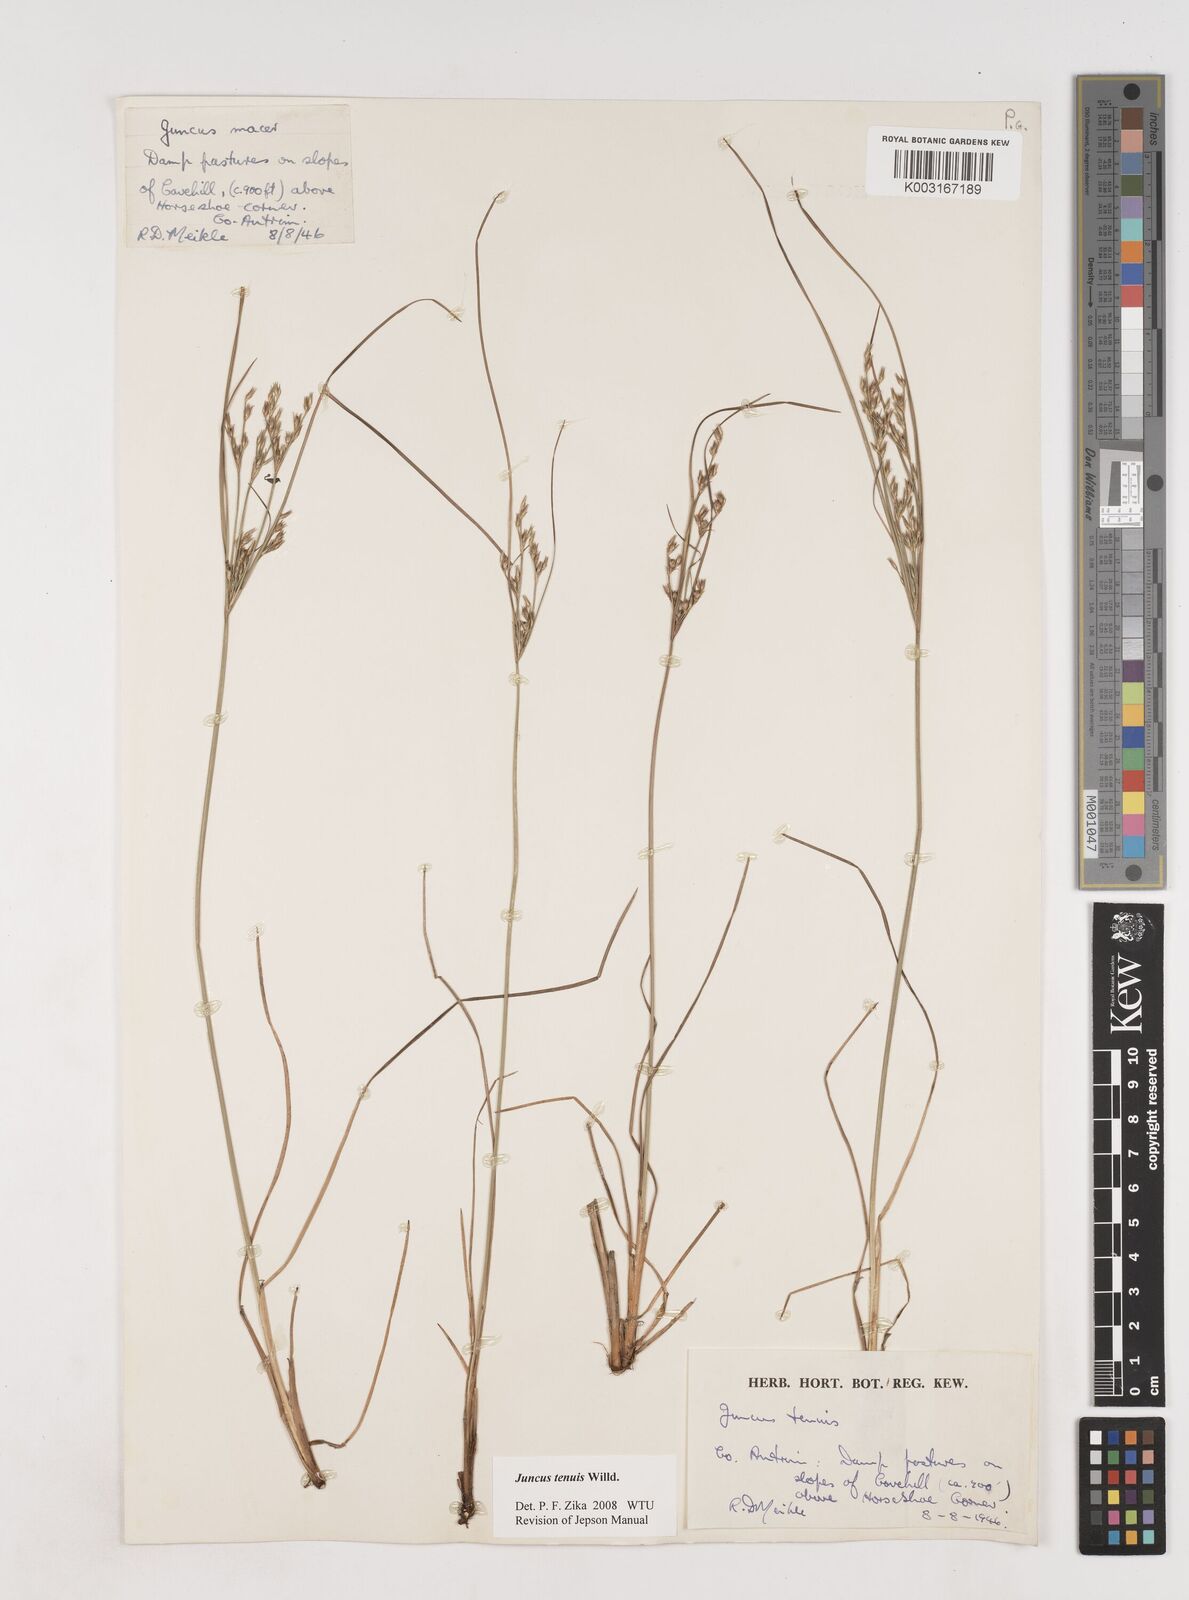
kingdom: Plantae
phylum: Tracheophyta
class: Liliopsida
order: Poales
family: Juncaceae
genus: Juncus
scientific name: Juncus tenuis
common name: Slender rush
